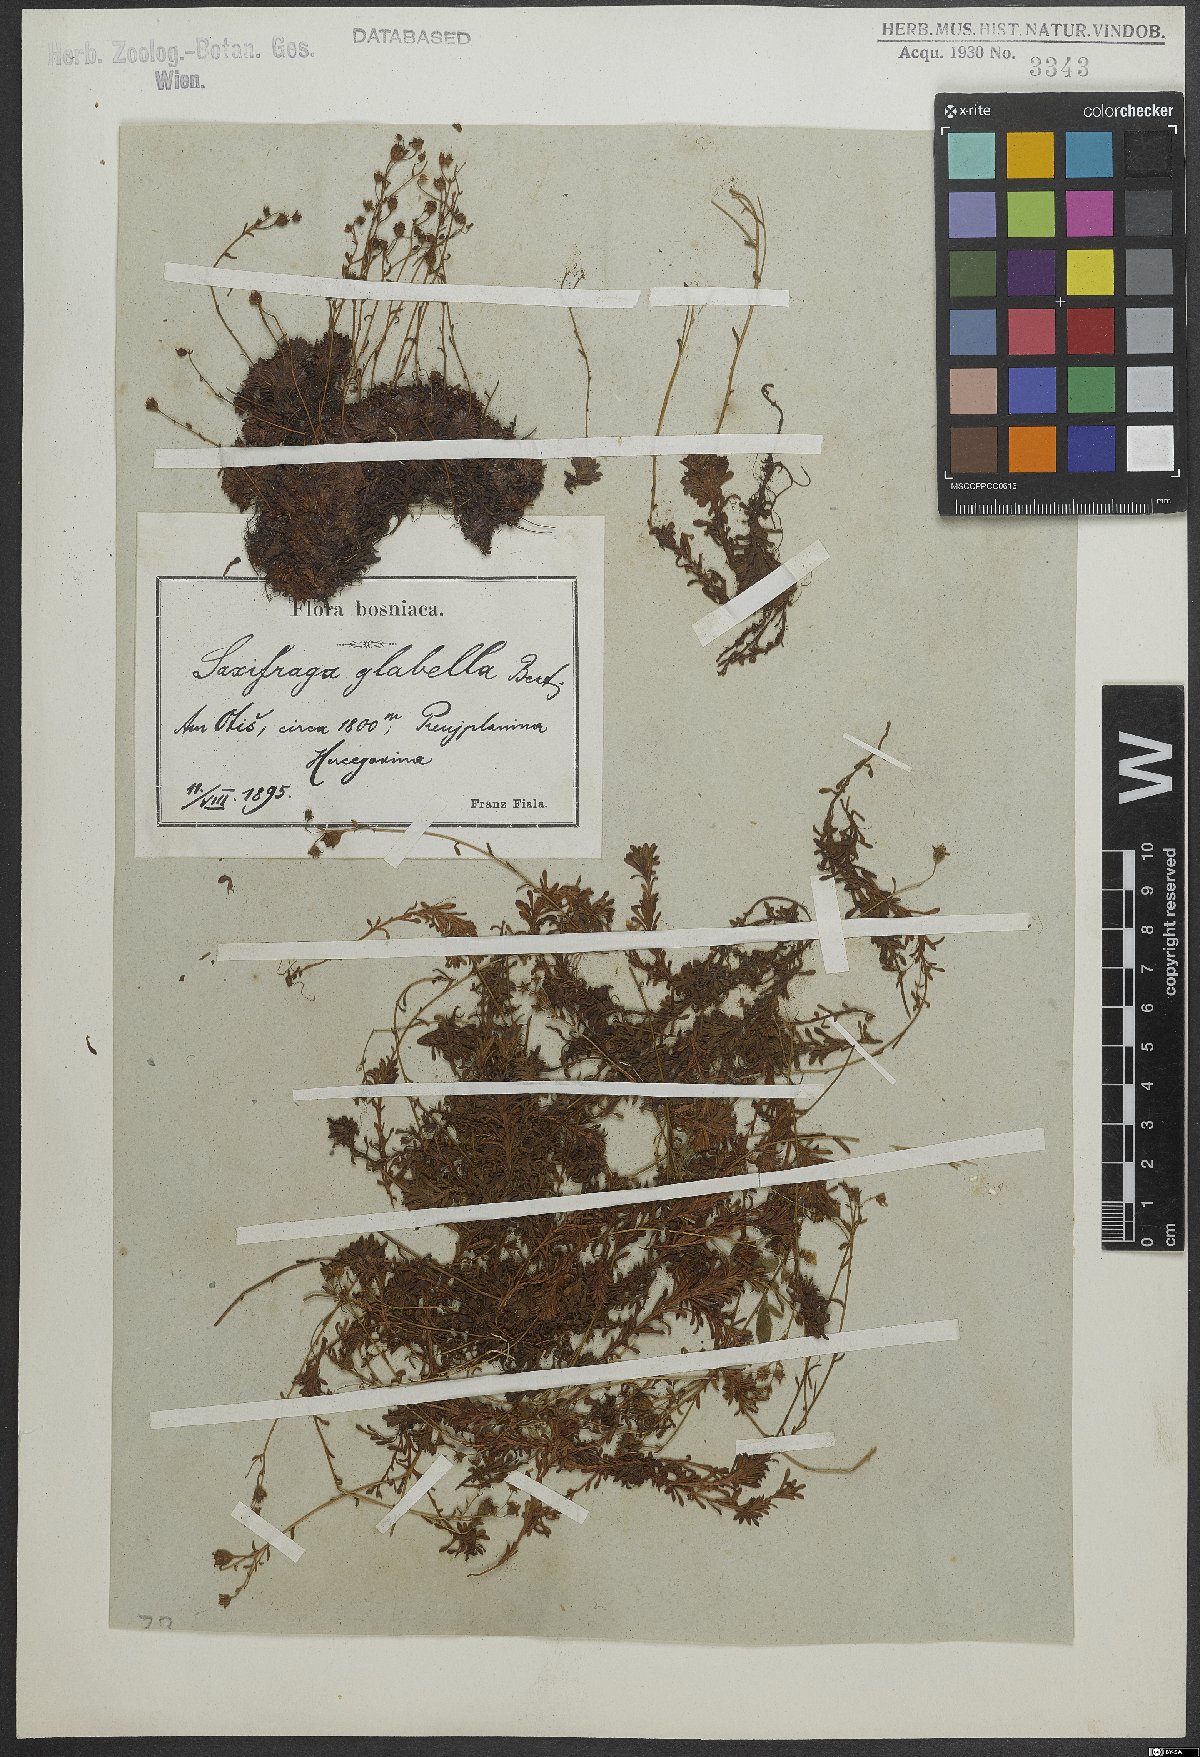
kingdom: Plantae
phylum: Tracheophyta
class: Magnoliopsida
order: Saxifragales
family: Saxifragaceae
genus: Saxifraga
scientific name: Saxifraga glabella
